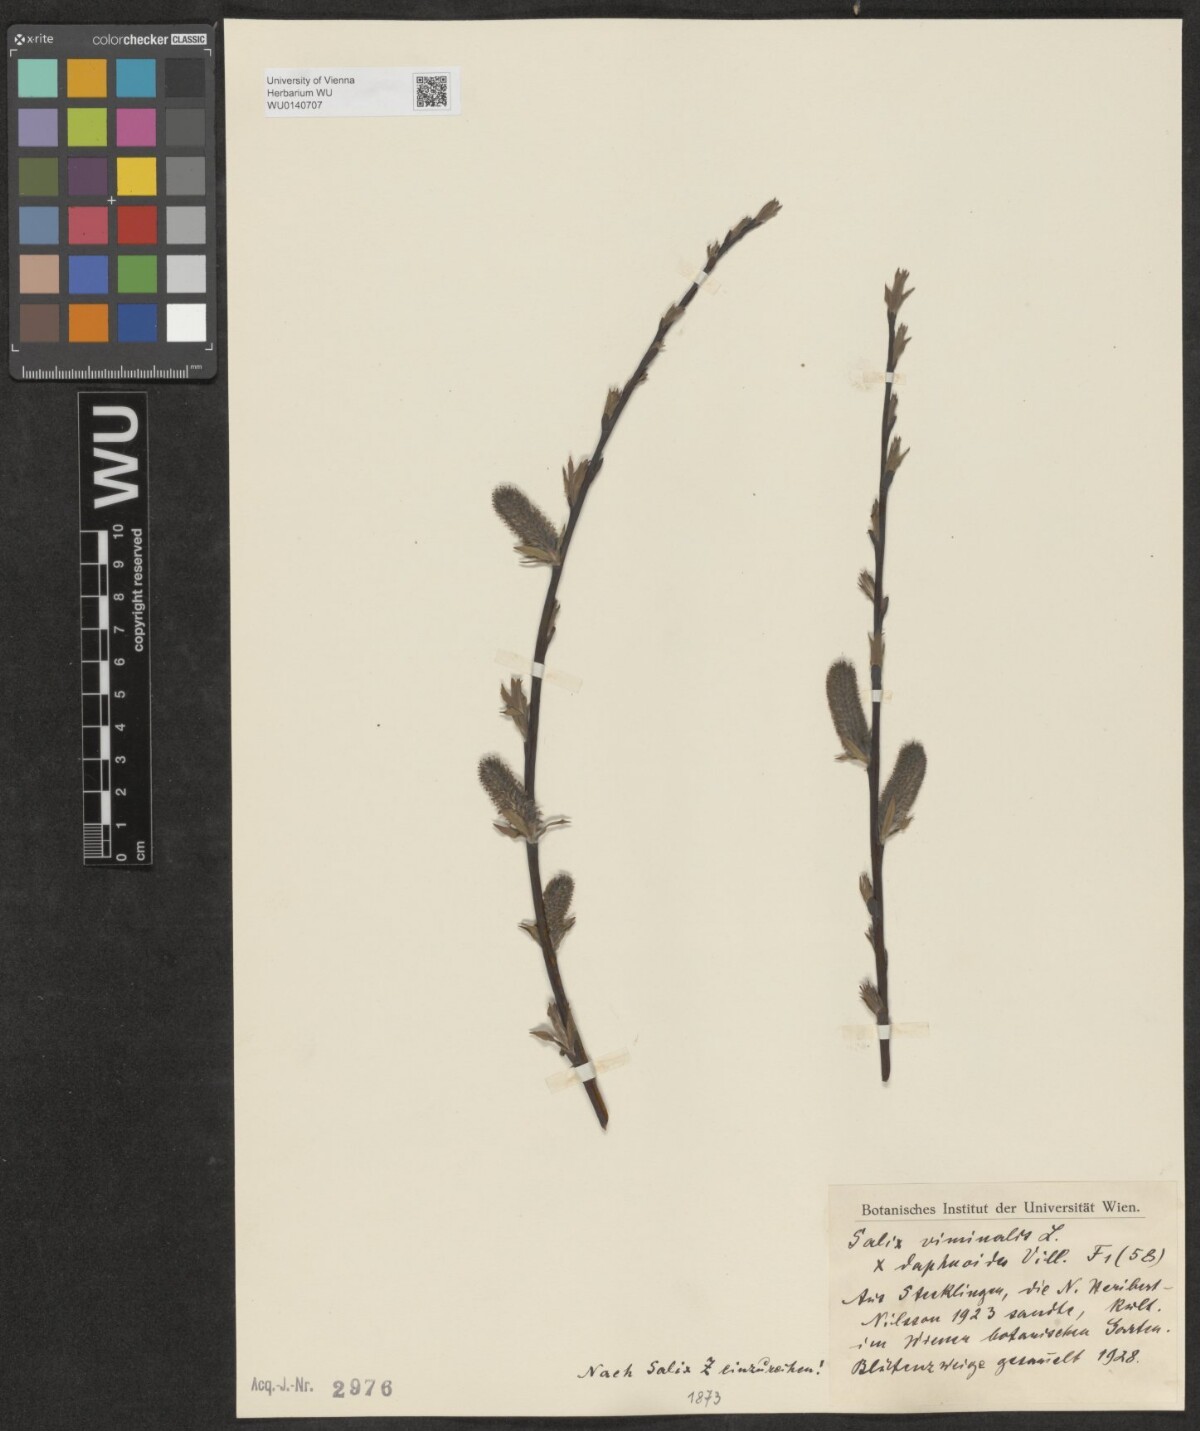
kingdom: Plantae
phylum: Tracheophyta
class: Magnoliopsida
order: Malpighiales
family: Salicaceae
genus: Salix
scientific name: Salix
